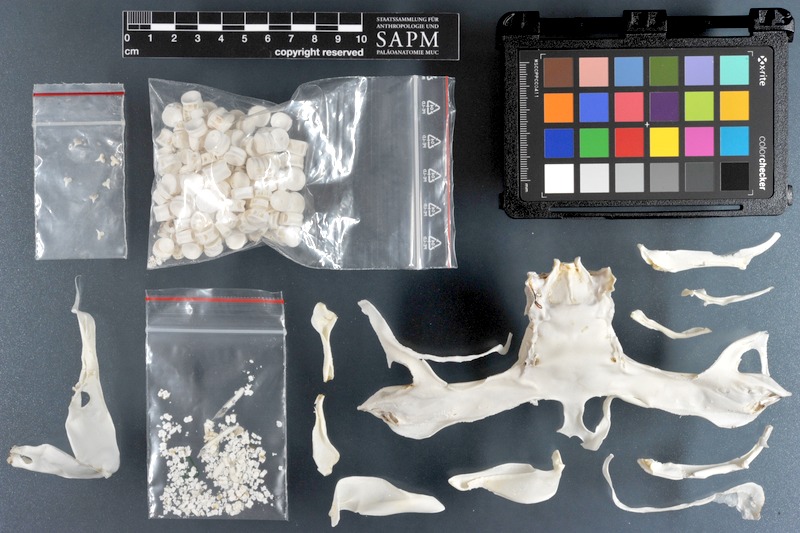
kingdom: Animalia
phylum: Chordata
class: Elasmobranchii
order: Carcharhiniformes
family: Sphyrnidae
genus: Sphyrna
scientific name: Sphyrna zygaena
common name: Smooth hammerhead
